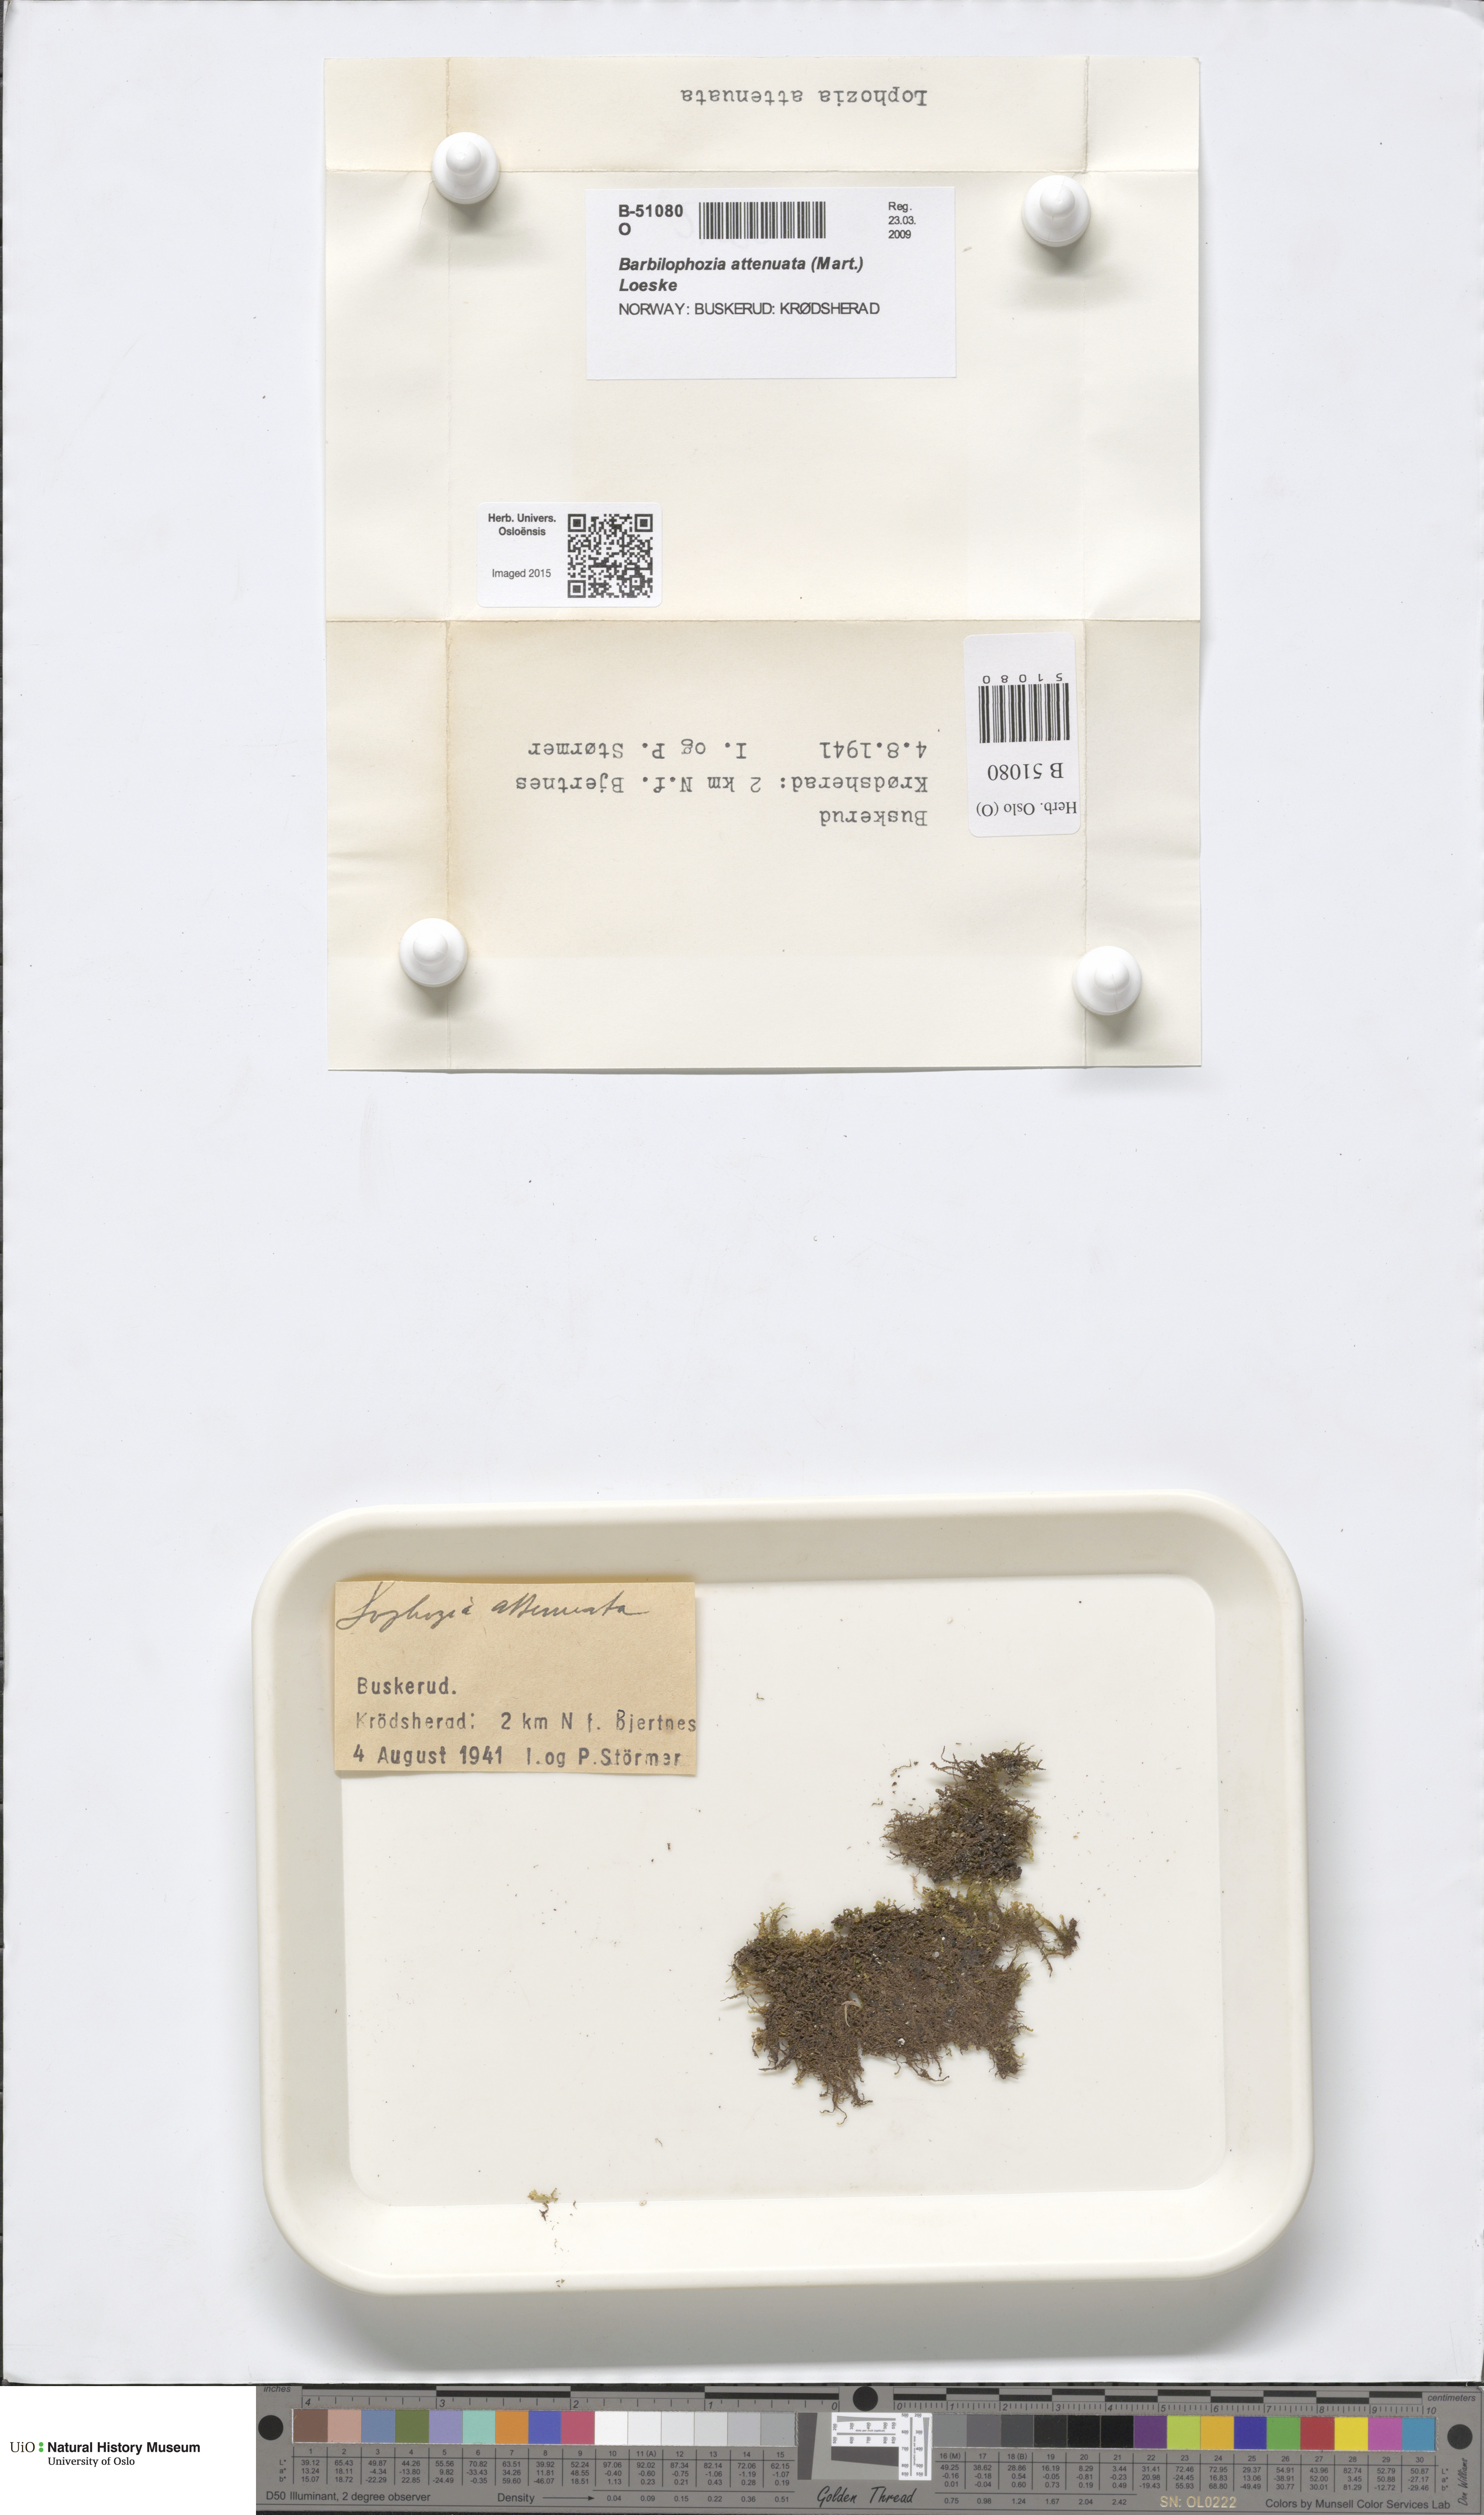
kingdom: Plantae
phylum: Marchantiophyta
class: Jungermanniopsida
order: Jungermanniales
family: Anastrophyllaceae
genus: Neoorthocaulis
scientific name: Neoorthocaulis attenuatus
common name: Trunk pawwort
